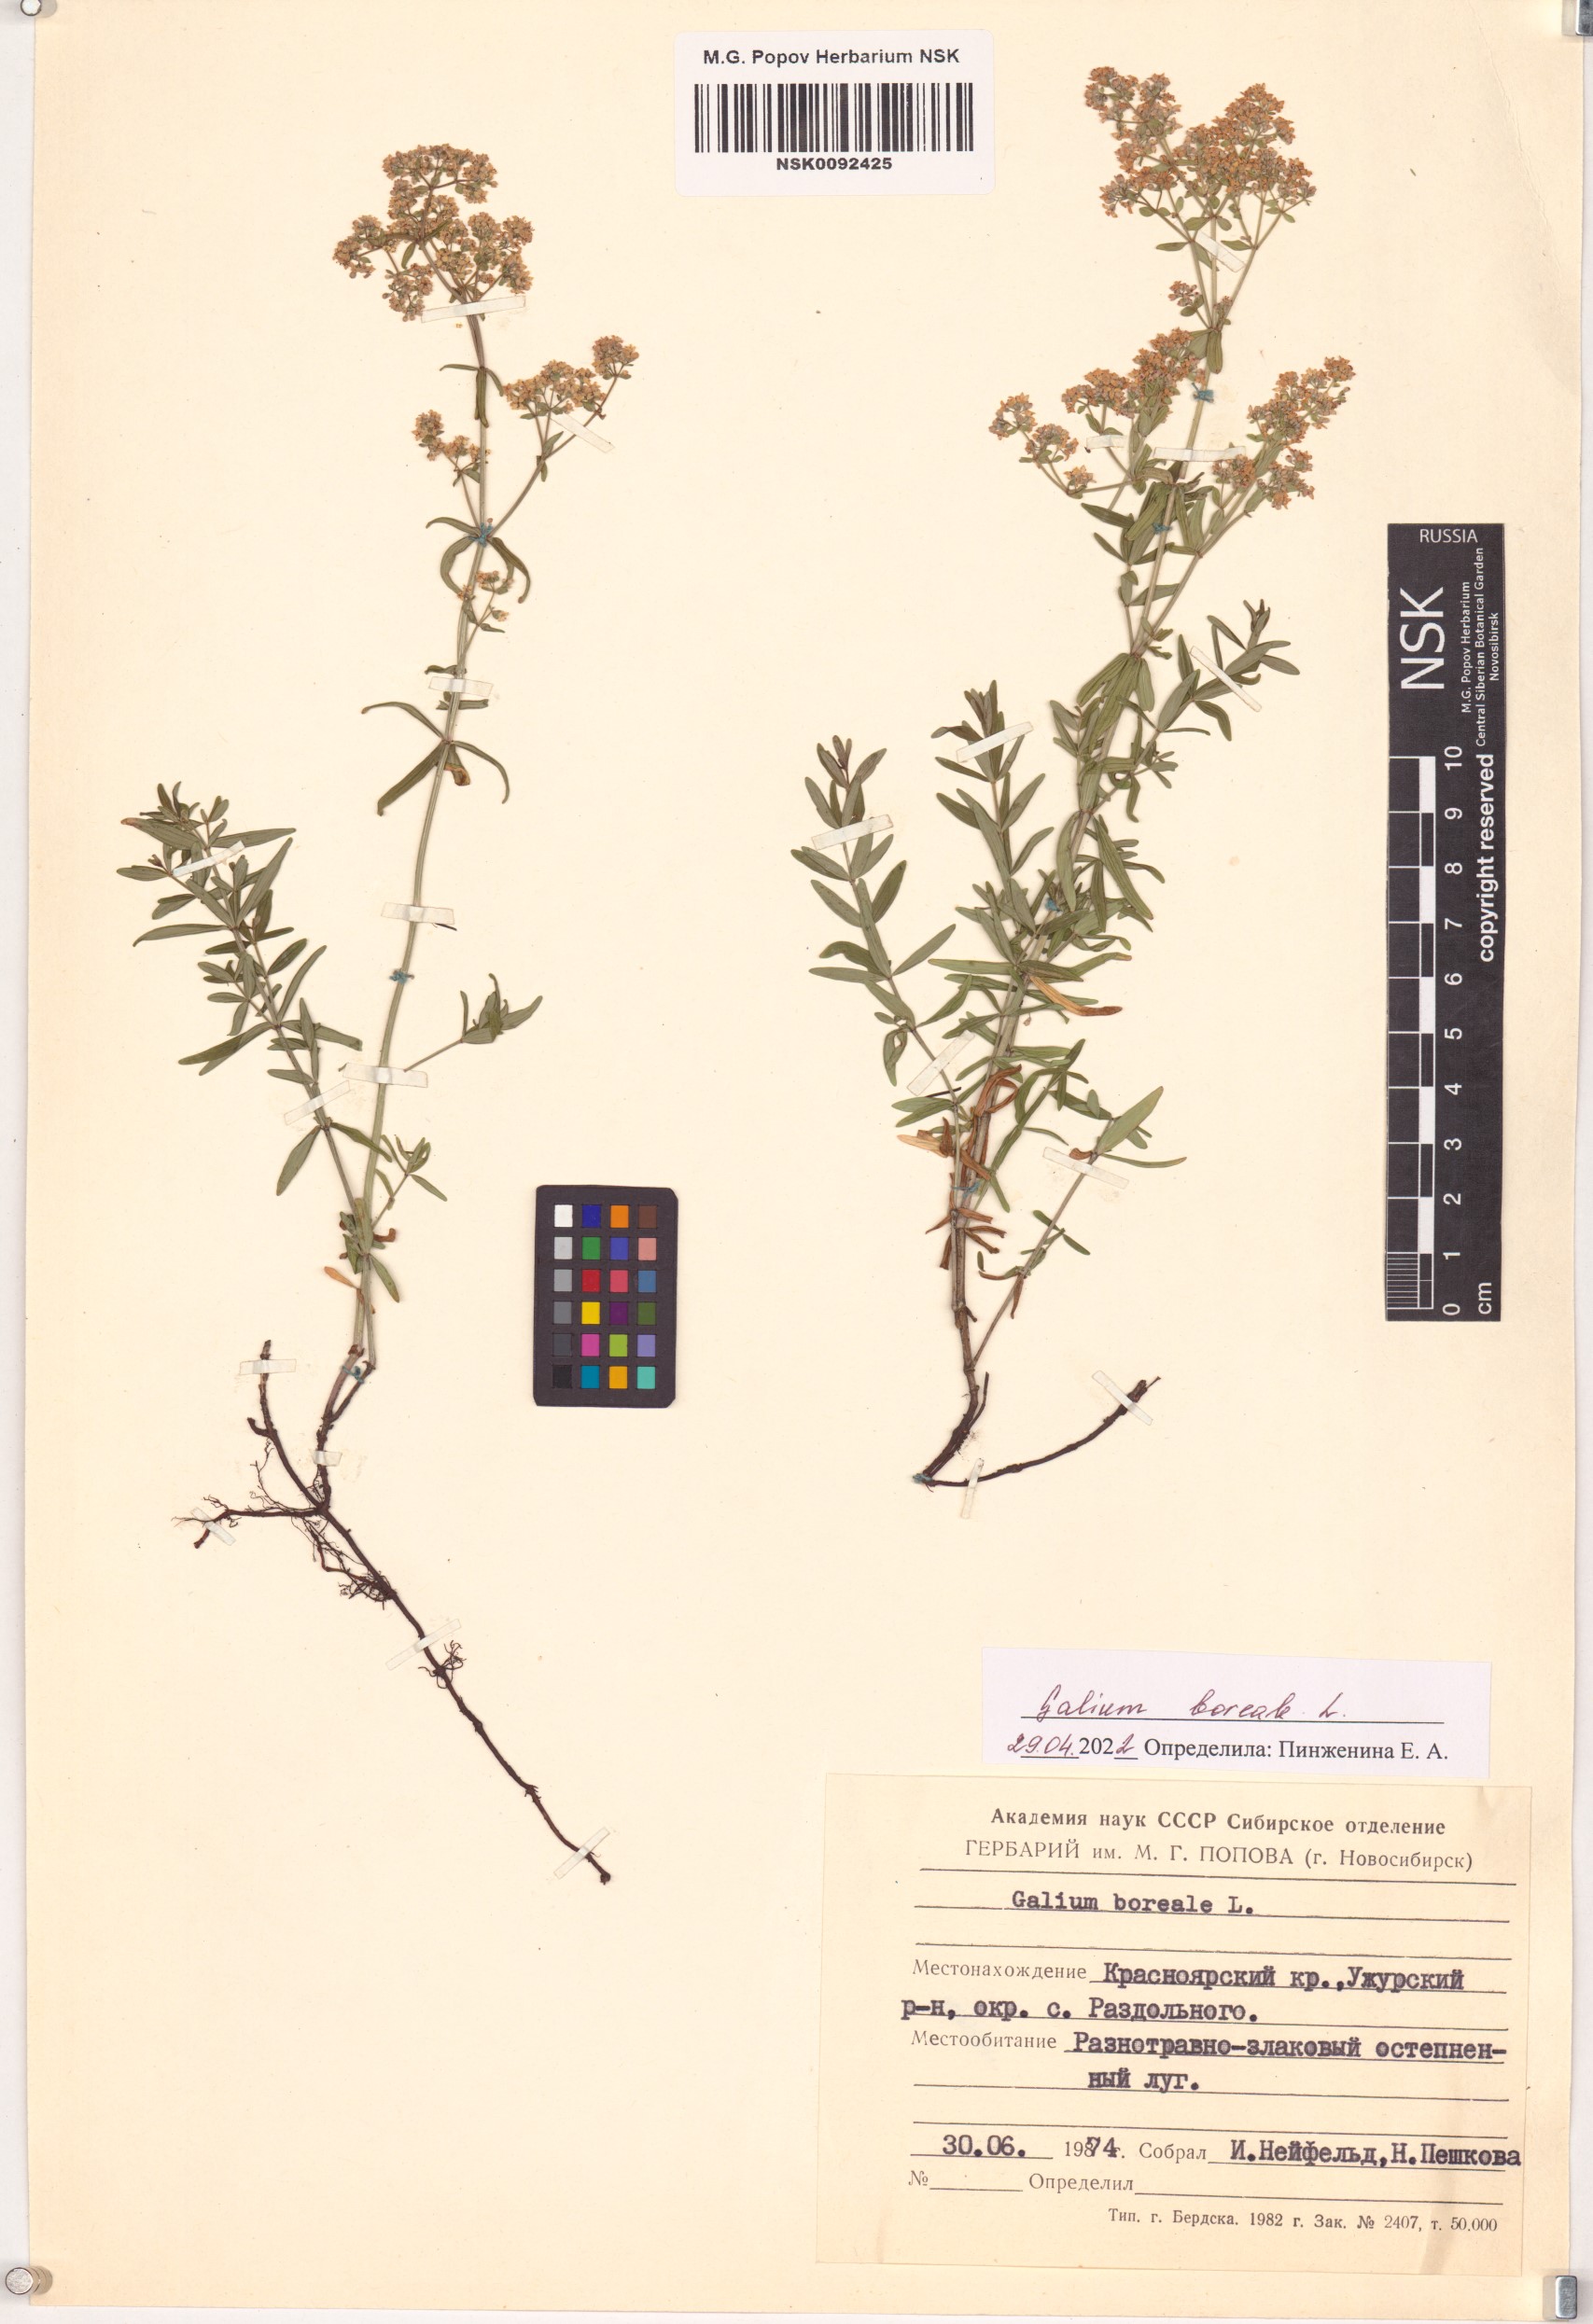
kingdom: Plantae
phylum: Tracheophyta
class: Magnoliopsida
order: Gentianales
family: Rubiaceae
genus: Galium
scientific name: Galium boreale
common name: Northern bedstraw
